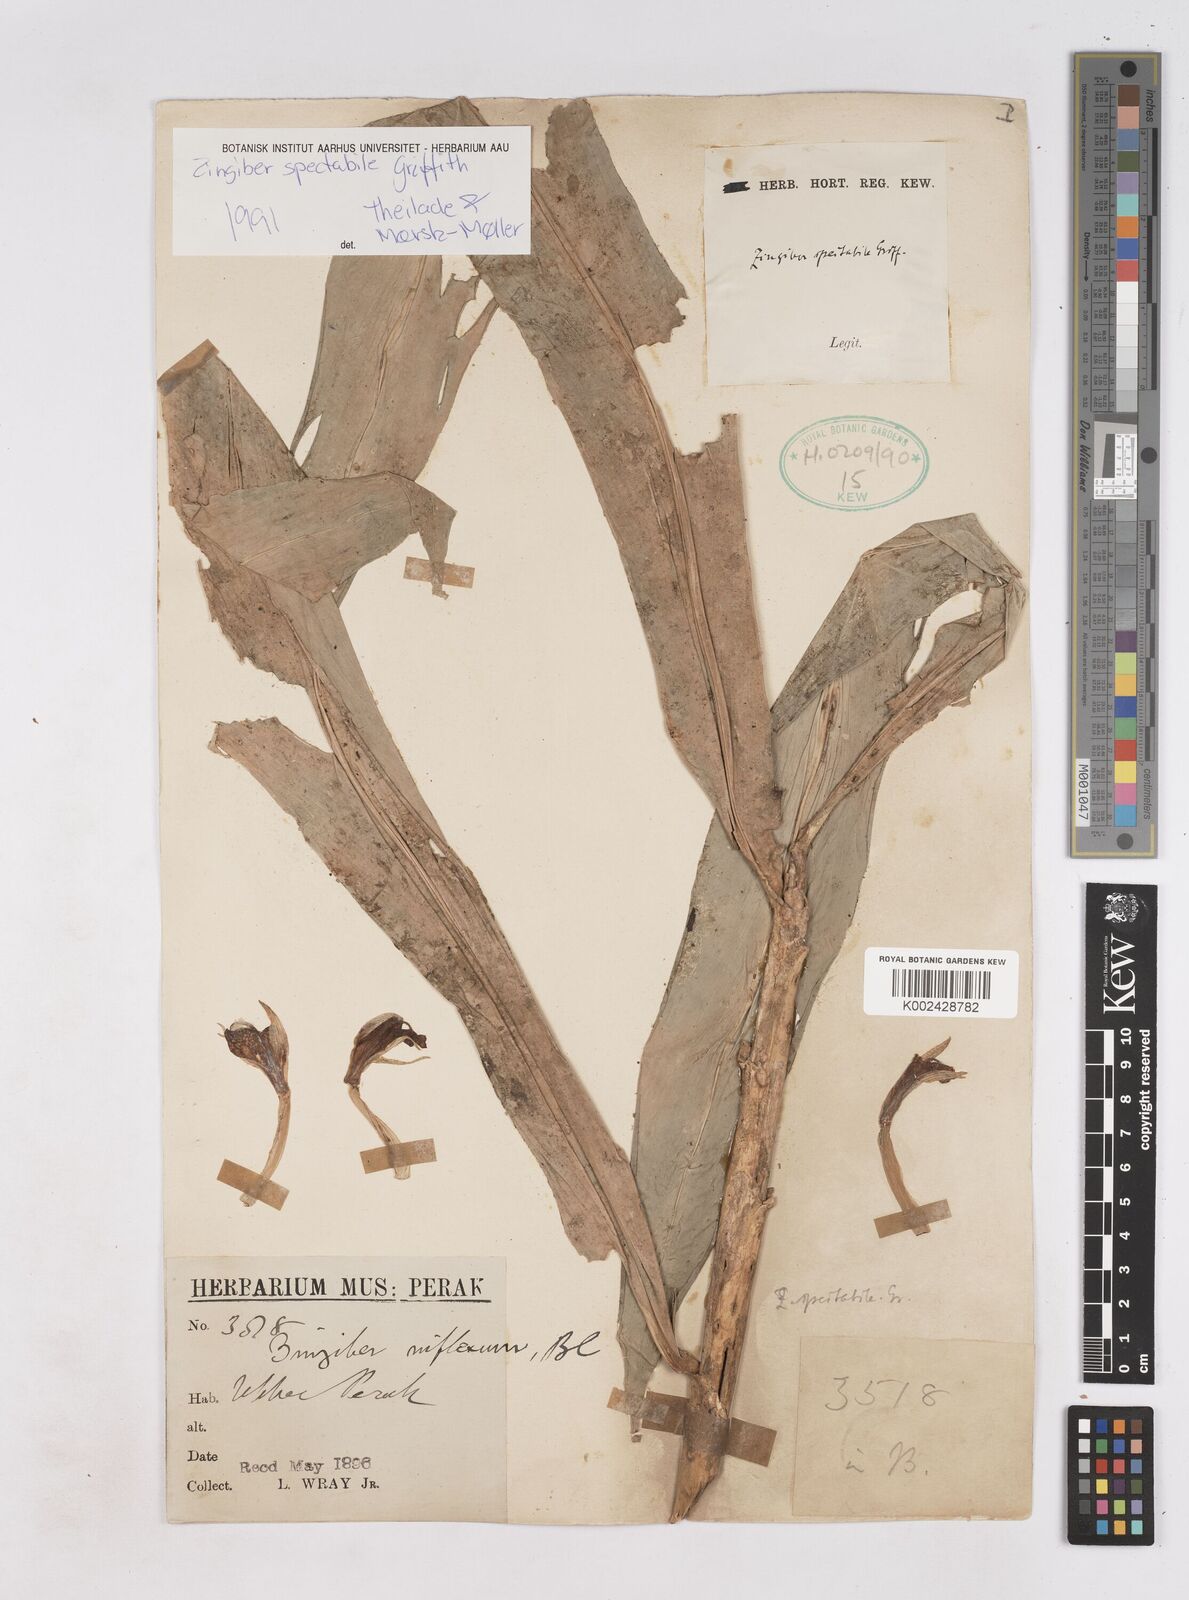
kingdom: Plantae
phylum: Tracheophyta
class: Liliopsida
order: Zingiberales
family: Zingiberaceae
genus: Zingiber
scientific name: Zingiber spectabile
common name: Beehive ginger
